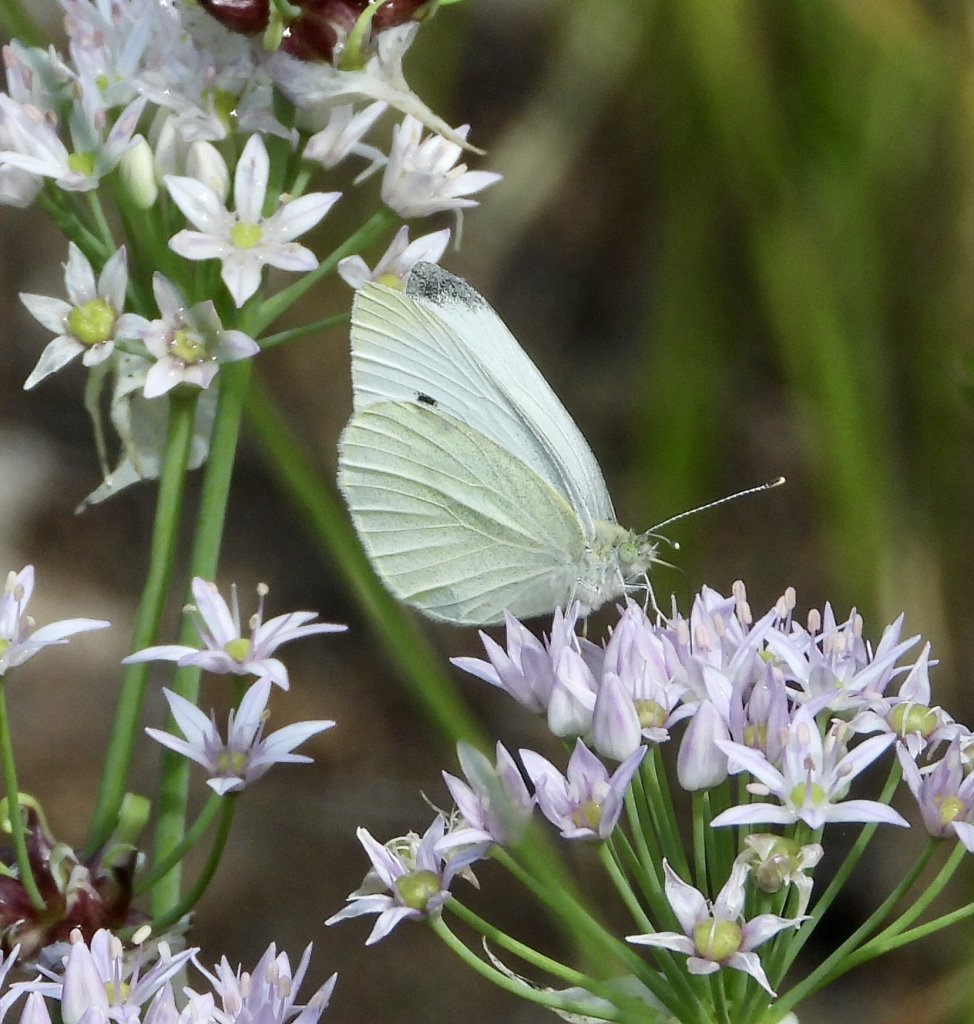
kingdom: Animalia
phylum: Arthropoda
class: Insecta
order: Lepidoptera
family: Pieridae
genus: Pieris
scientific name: Pieris rapae
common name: Cabbage White
